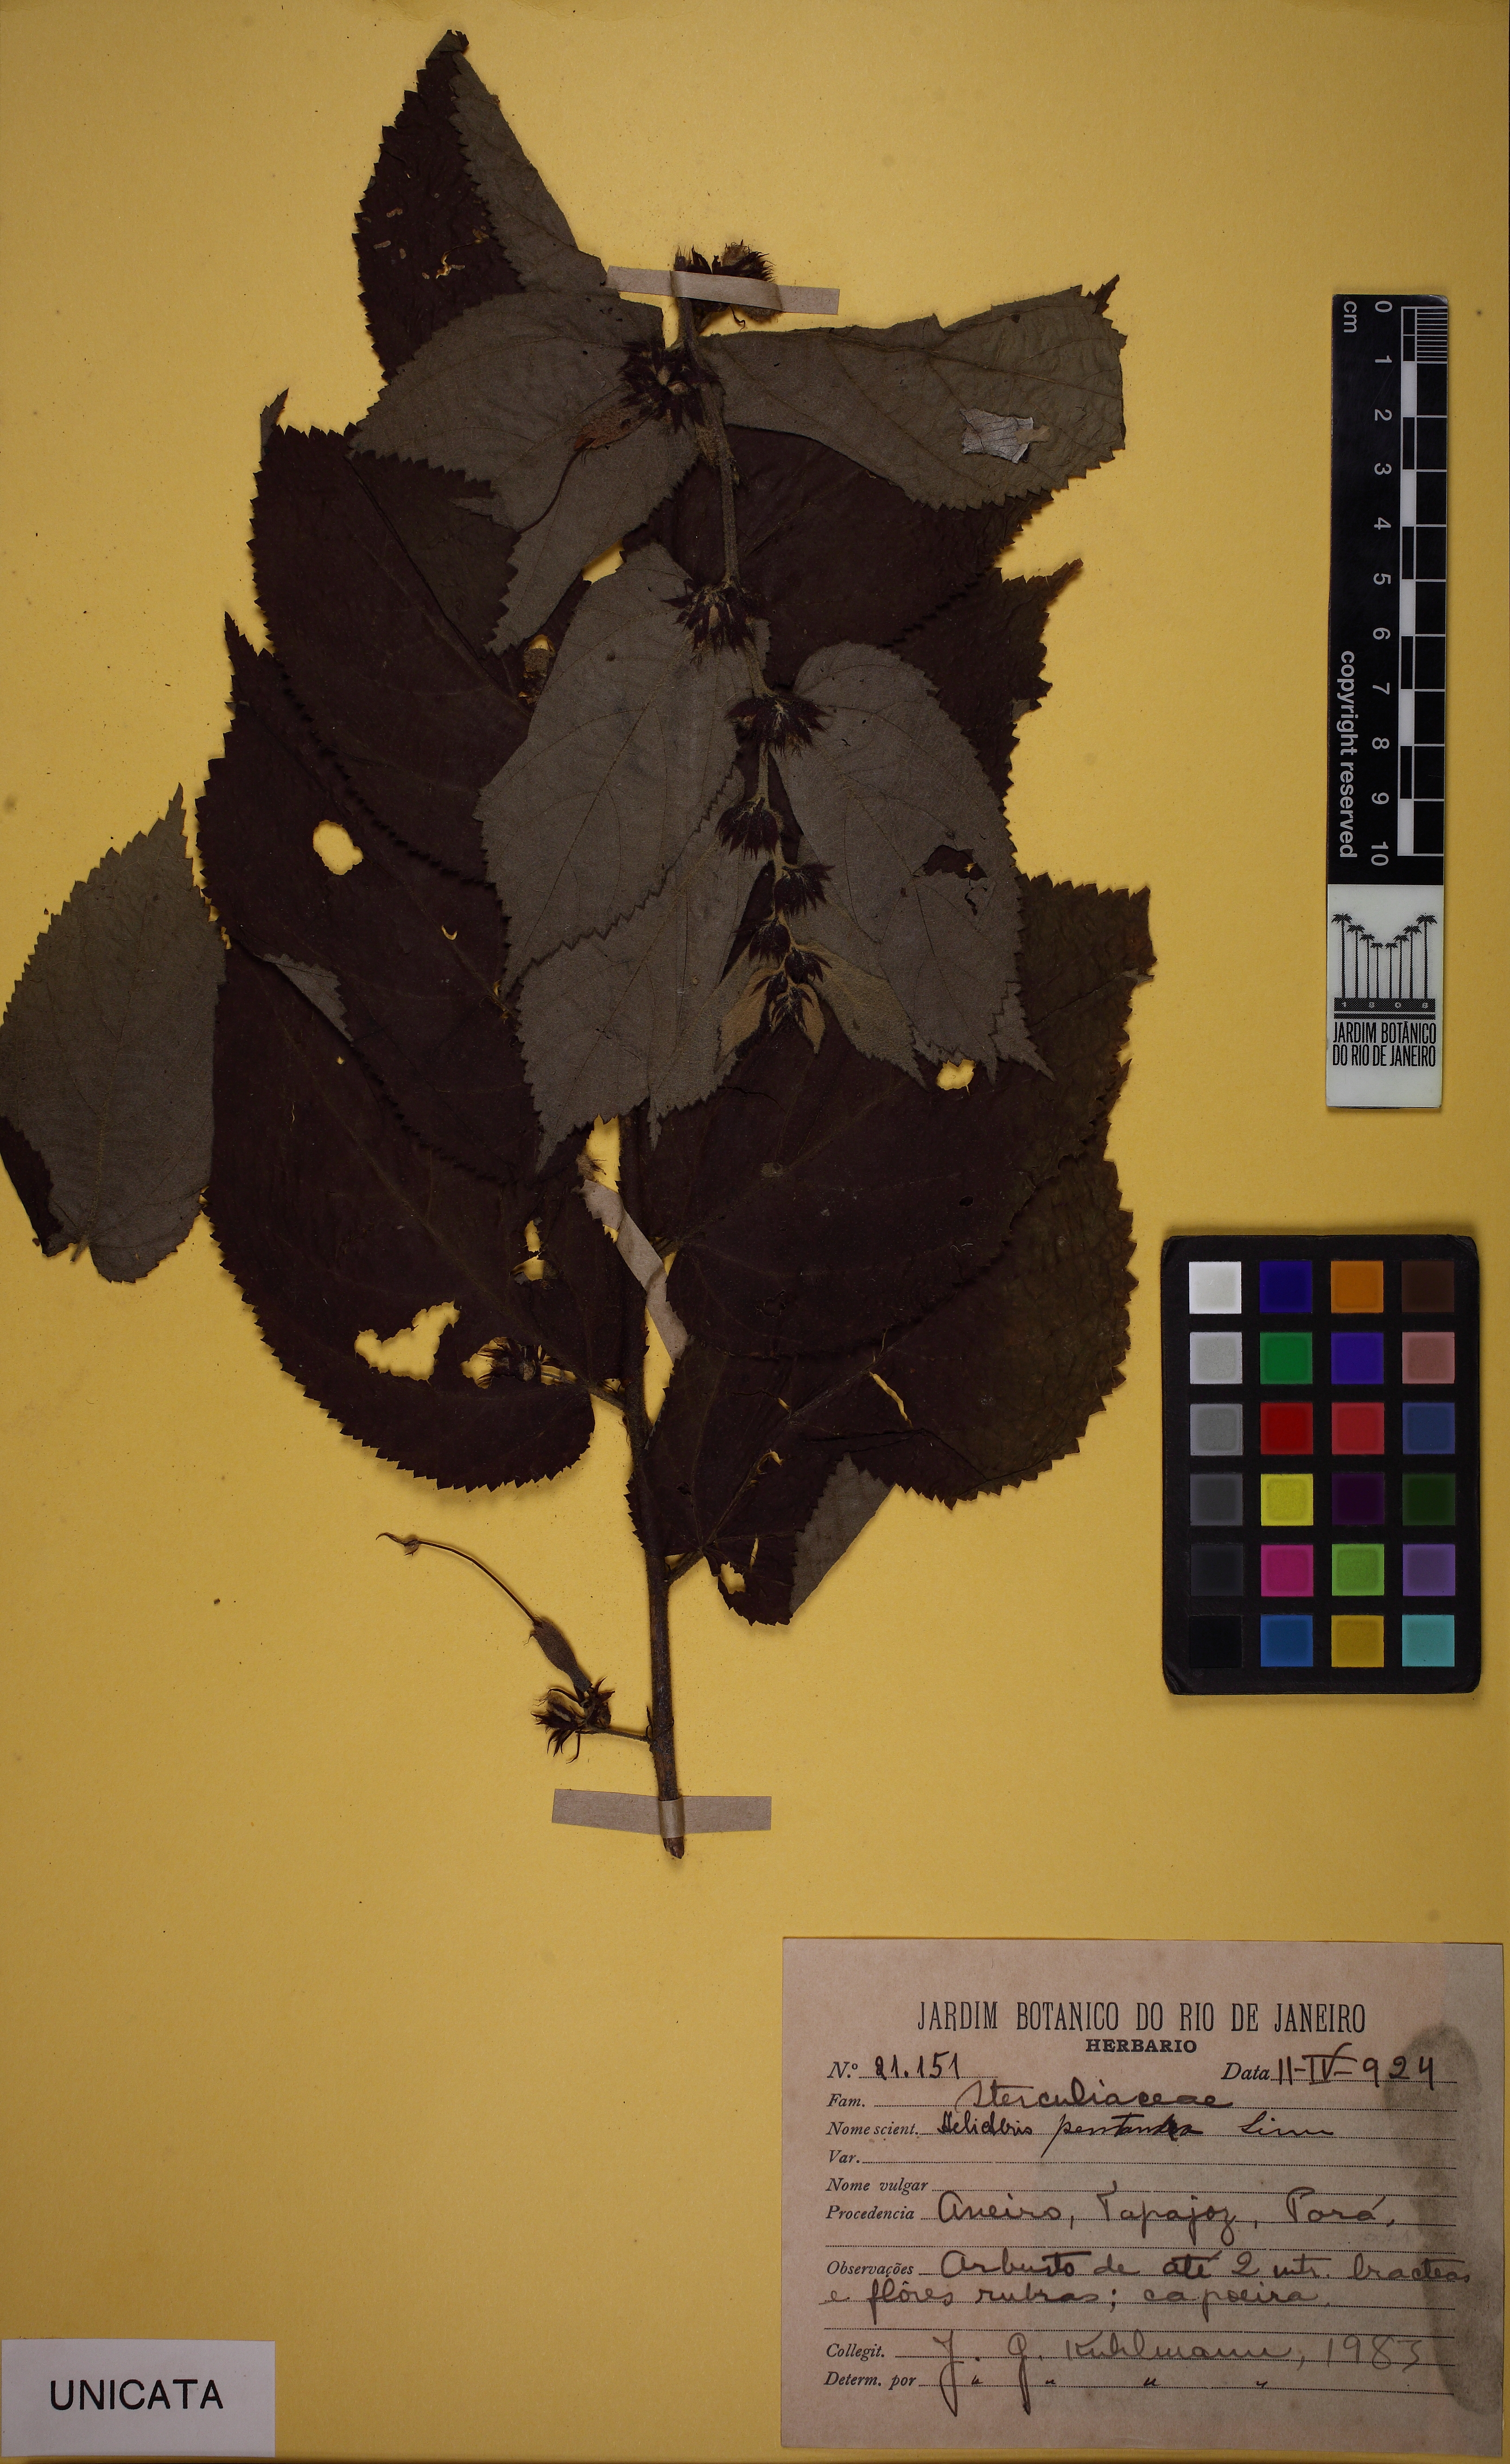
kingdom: Plantae
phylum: Tracheophyta
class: Magnoliopsida
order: Malvales
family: Malvaceae
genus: Helicteres
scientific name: Helicteres pentandra
